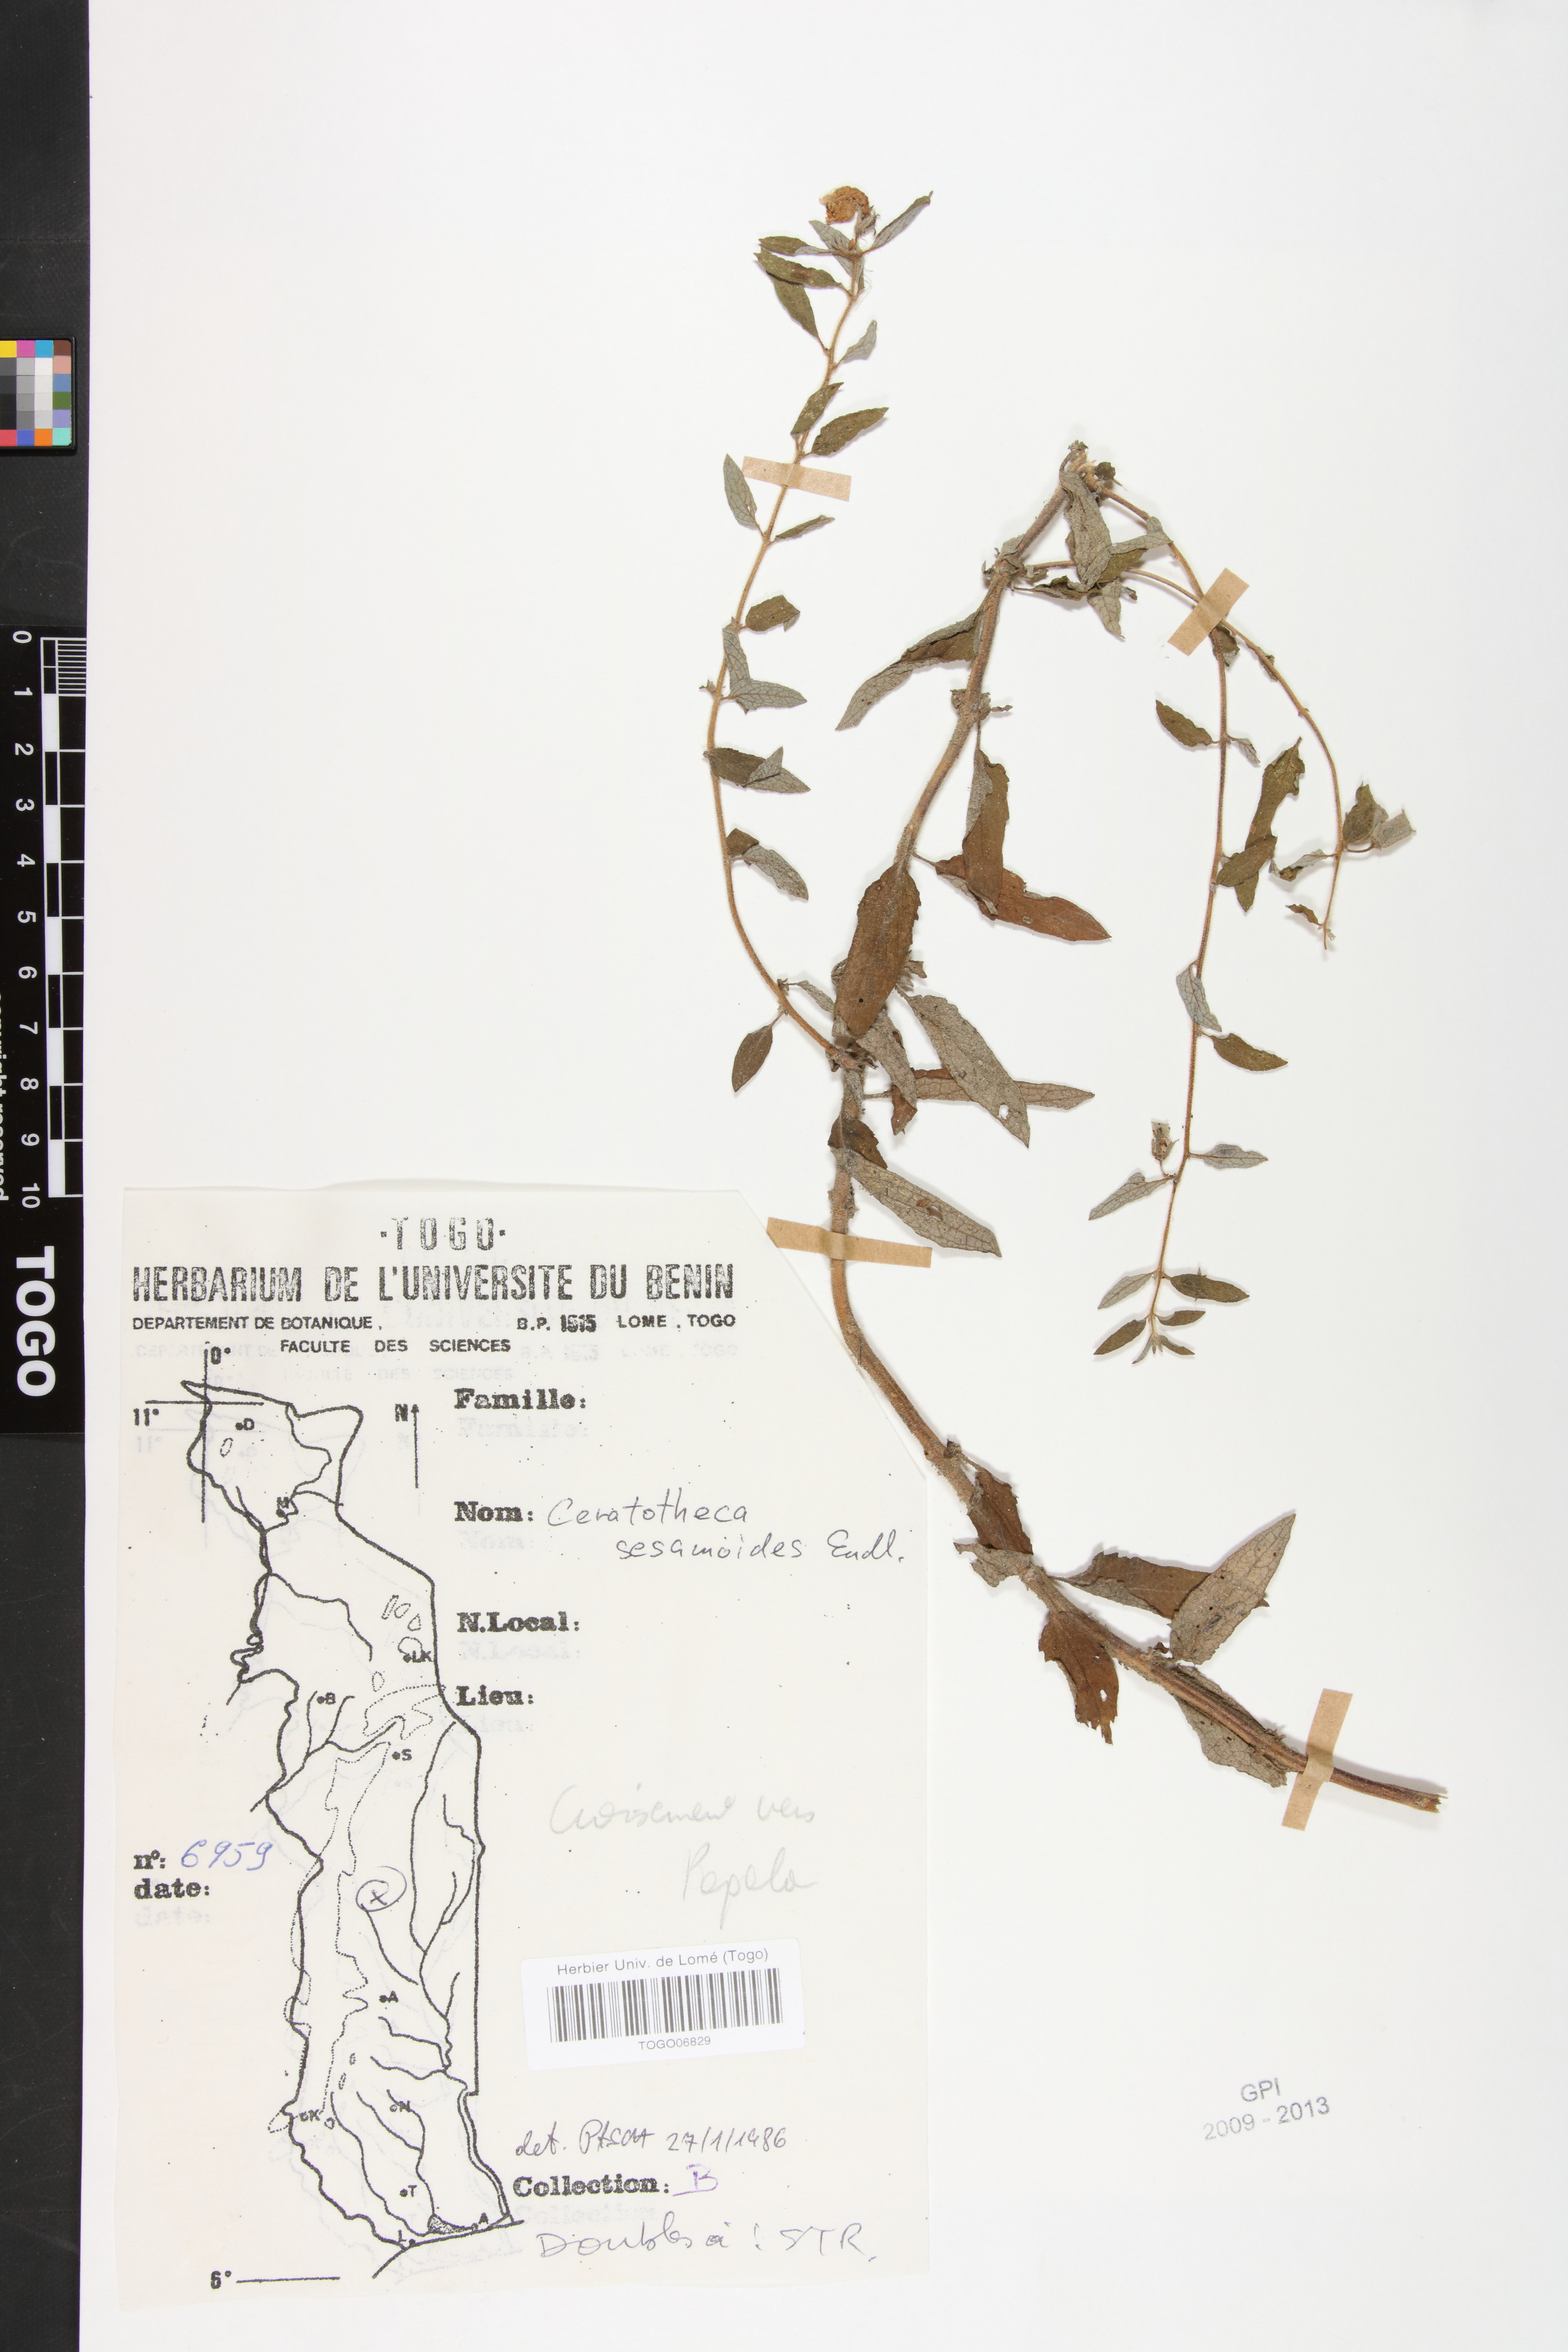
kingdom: Plantae
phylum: Tracheophyta
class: Magnoliopsida
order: Lamiales
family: Pedaliaceae
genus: Sesamum
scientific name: Sesamum sesamoides
